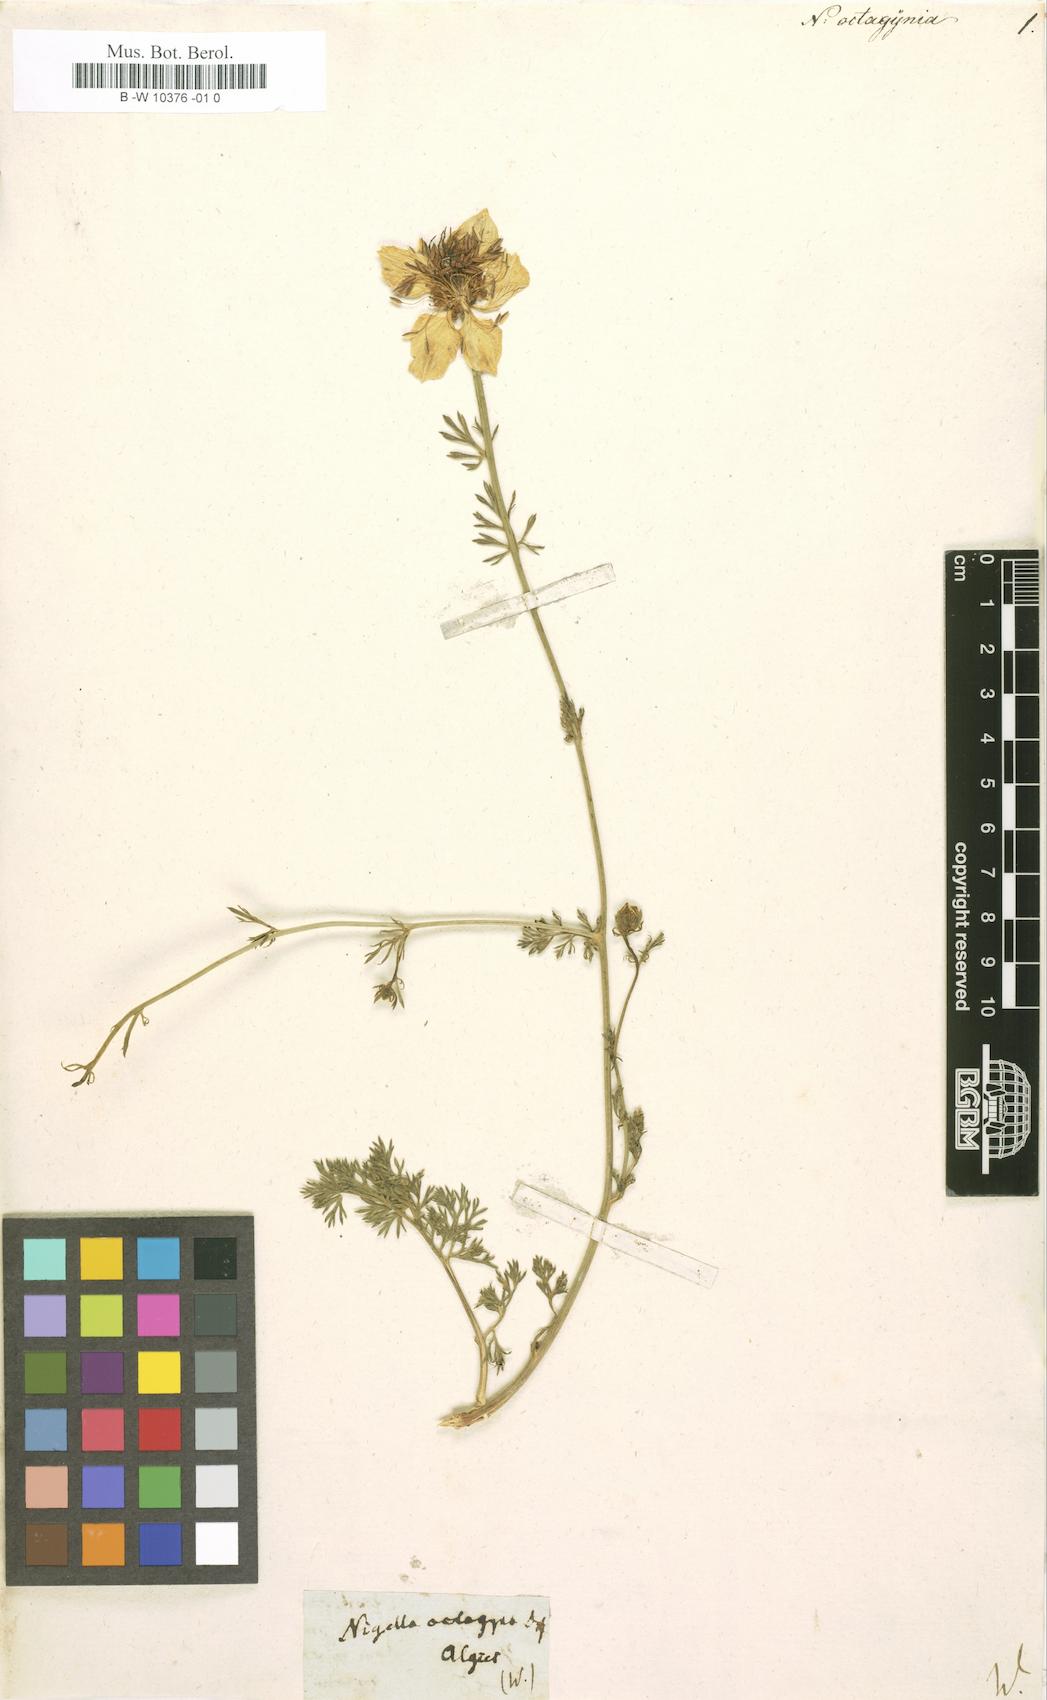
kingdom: Plantae
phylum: Tracheophyta
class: Magnoliopsida
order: Ranunculales
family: Ranunculaceae
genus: Nigella
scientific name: Nigella
